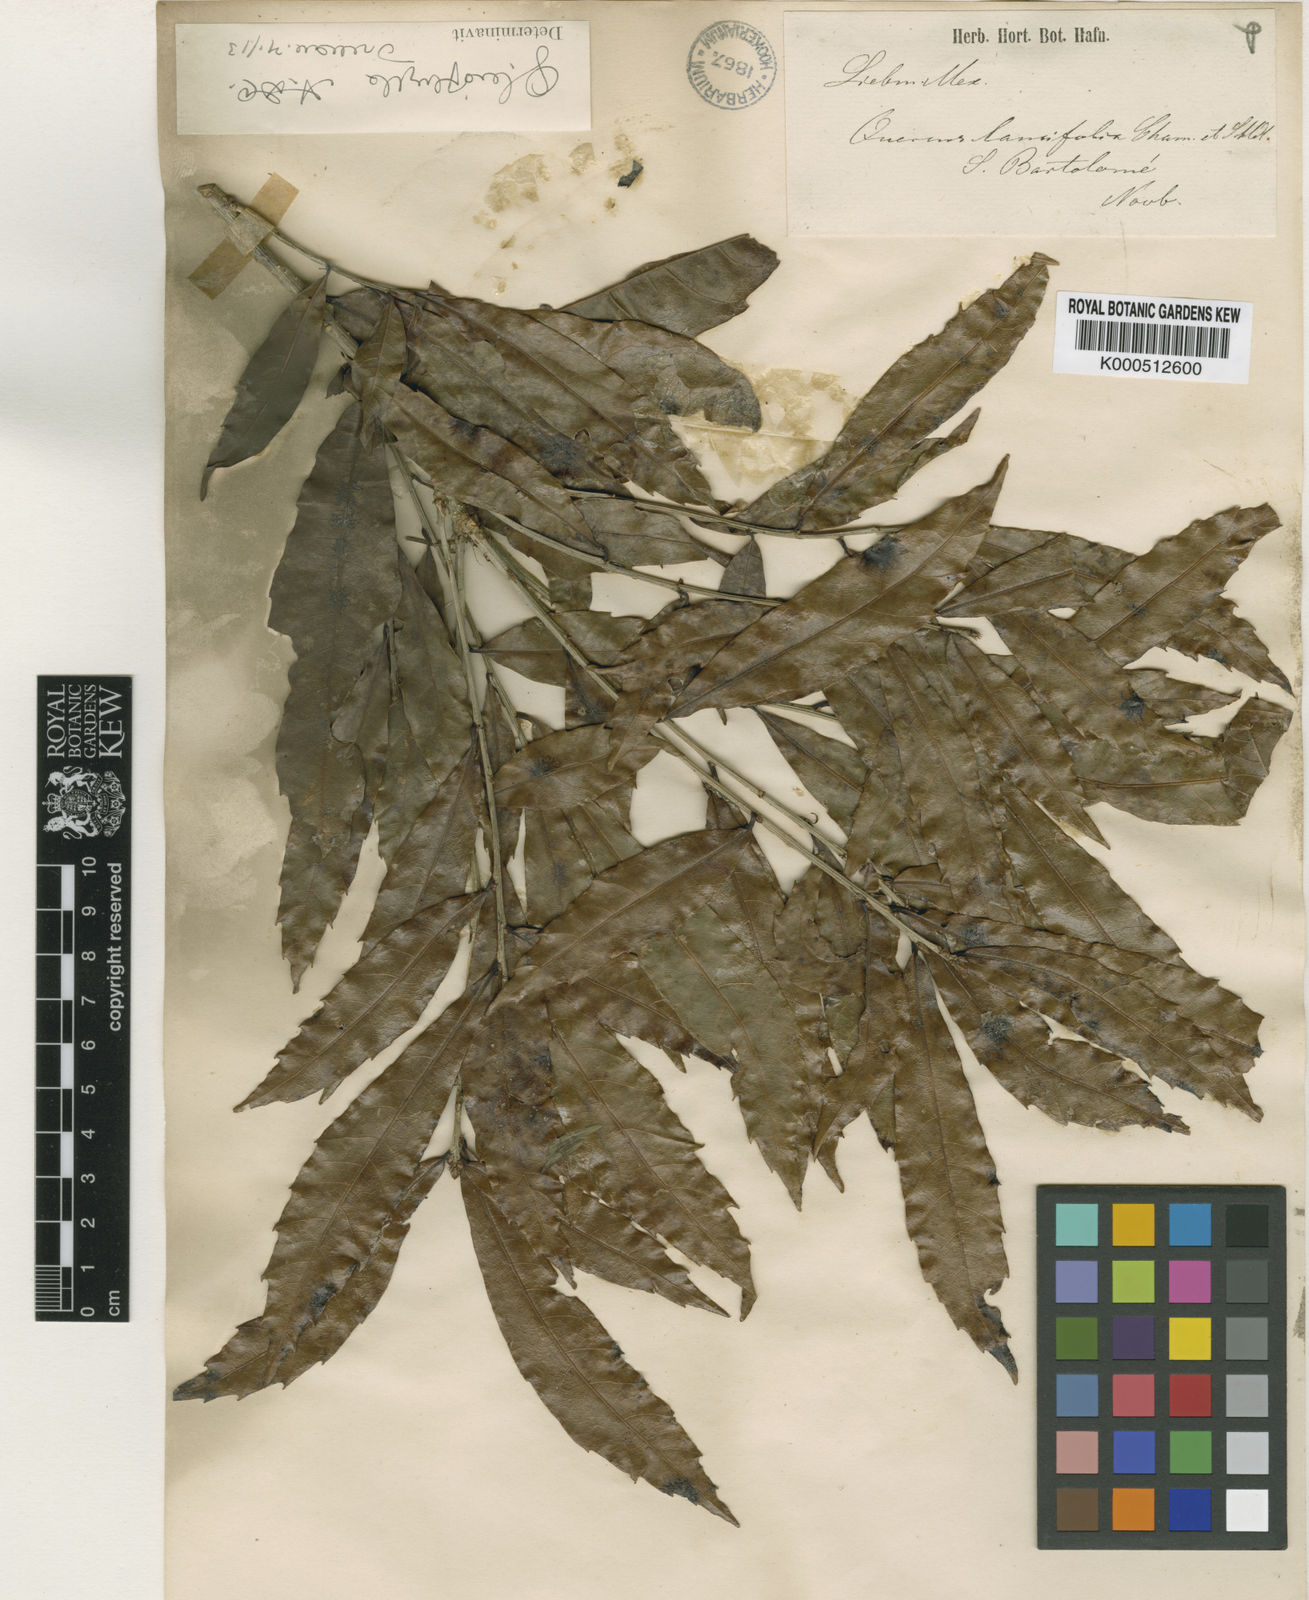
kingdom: Plantae
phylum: Tracheophyta
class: Magnoliopsida
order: Fagales
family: Fagaceae
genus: Quercus
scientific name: Quercus lancifolia
